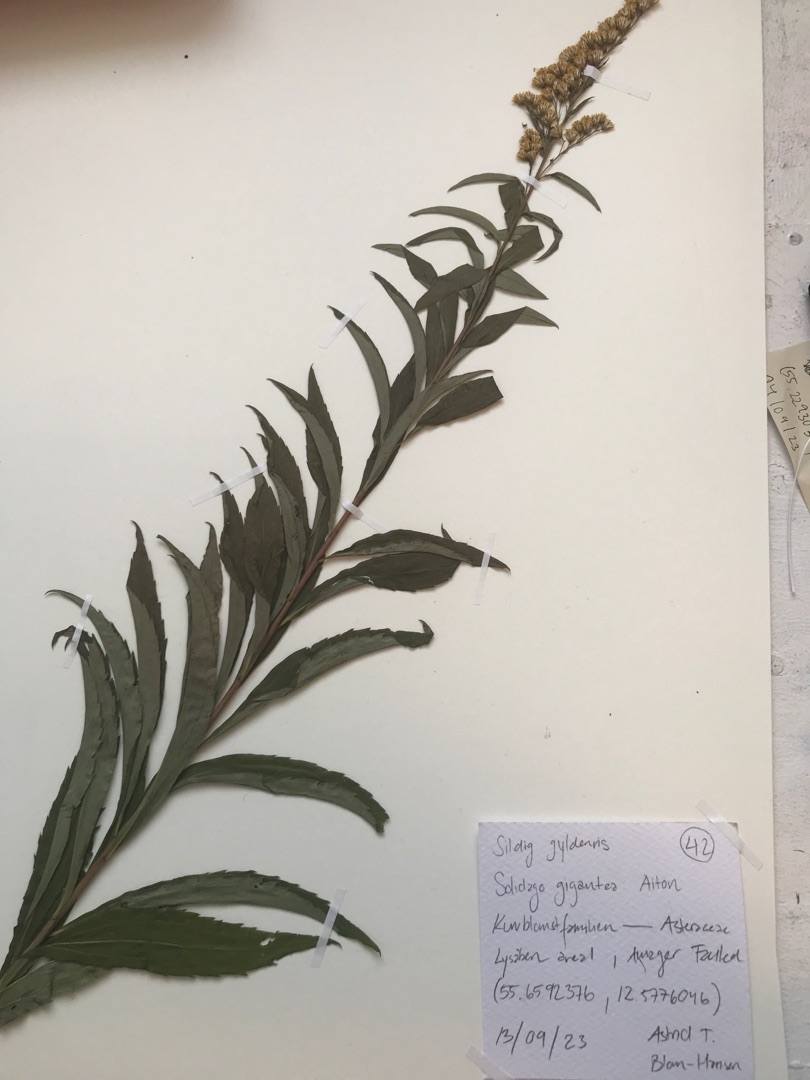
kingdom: Plantae
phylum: Tracheophyta
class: Magnoliopsida
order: Asterales
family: Asteraceae
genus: Solidago
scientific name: Solidago gigantea
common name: Sildig gyldenris
